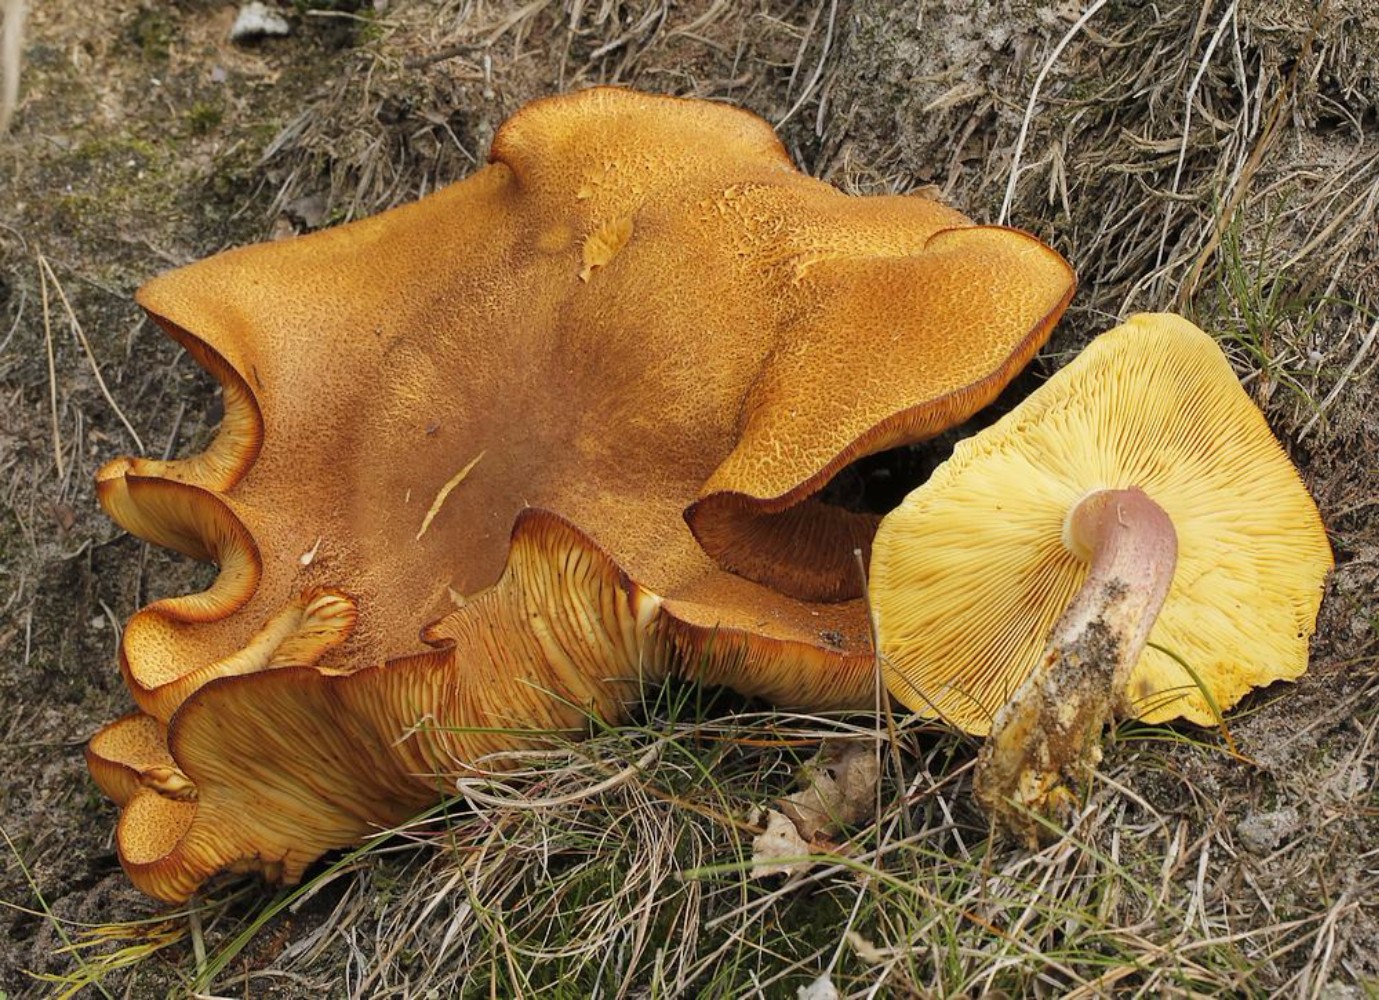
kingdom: Fungi
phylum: Basidiomycota
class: Agaricomycetes
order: Agaricales
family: Tricholomataceae
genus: Tricholomopsis
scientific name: Tricholomopsis rutilans
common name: purpur-væbnerhat
